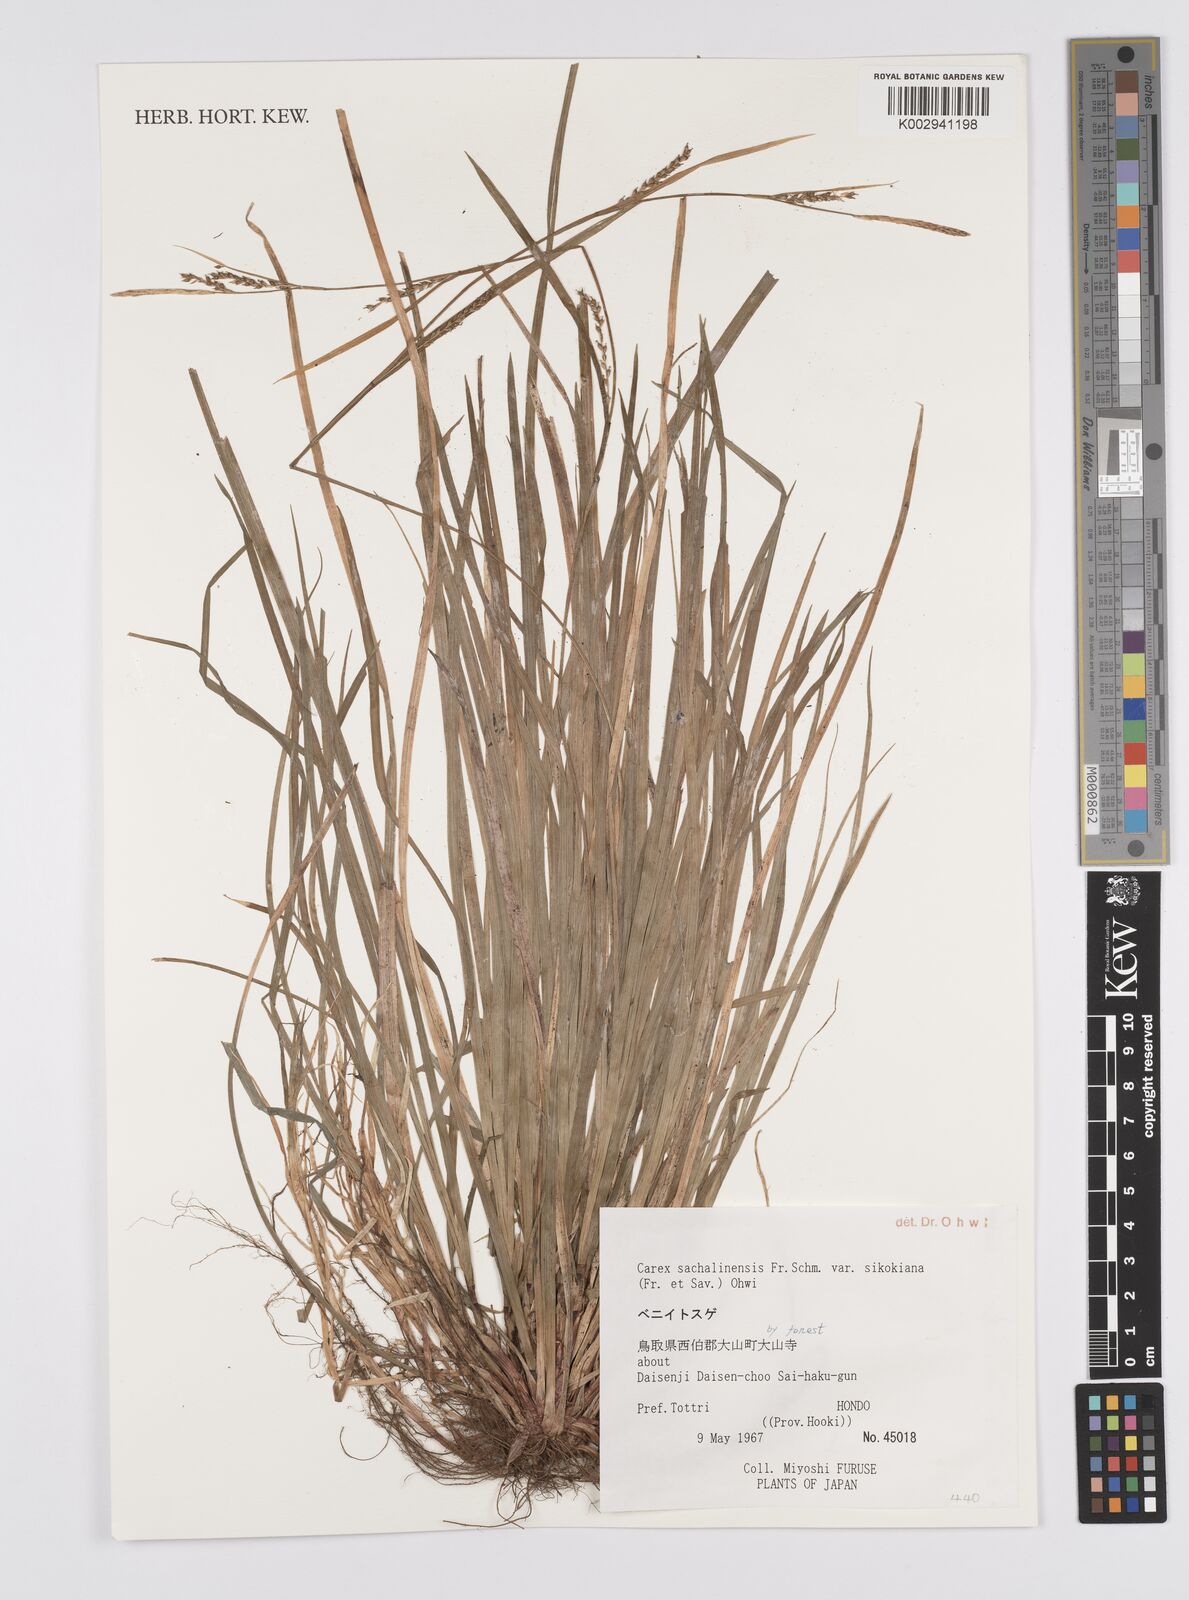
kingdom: Plantae
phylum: Tracheophyta
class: Liliopsida
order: Poales
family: Cyperaceae
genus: Carex
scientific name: Carex pisiformis
